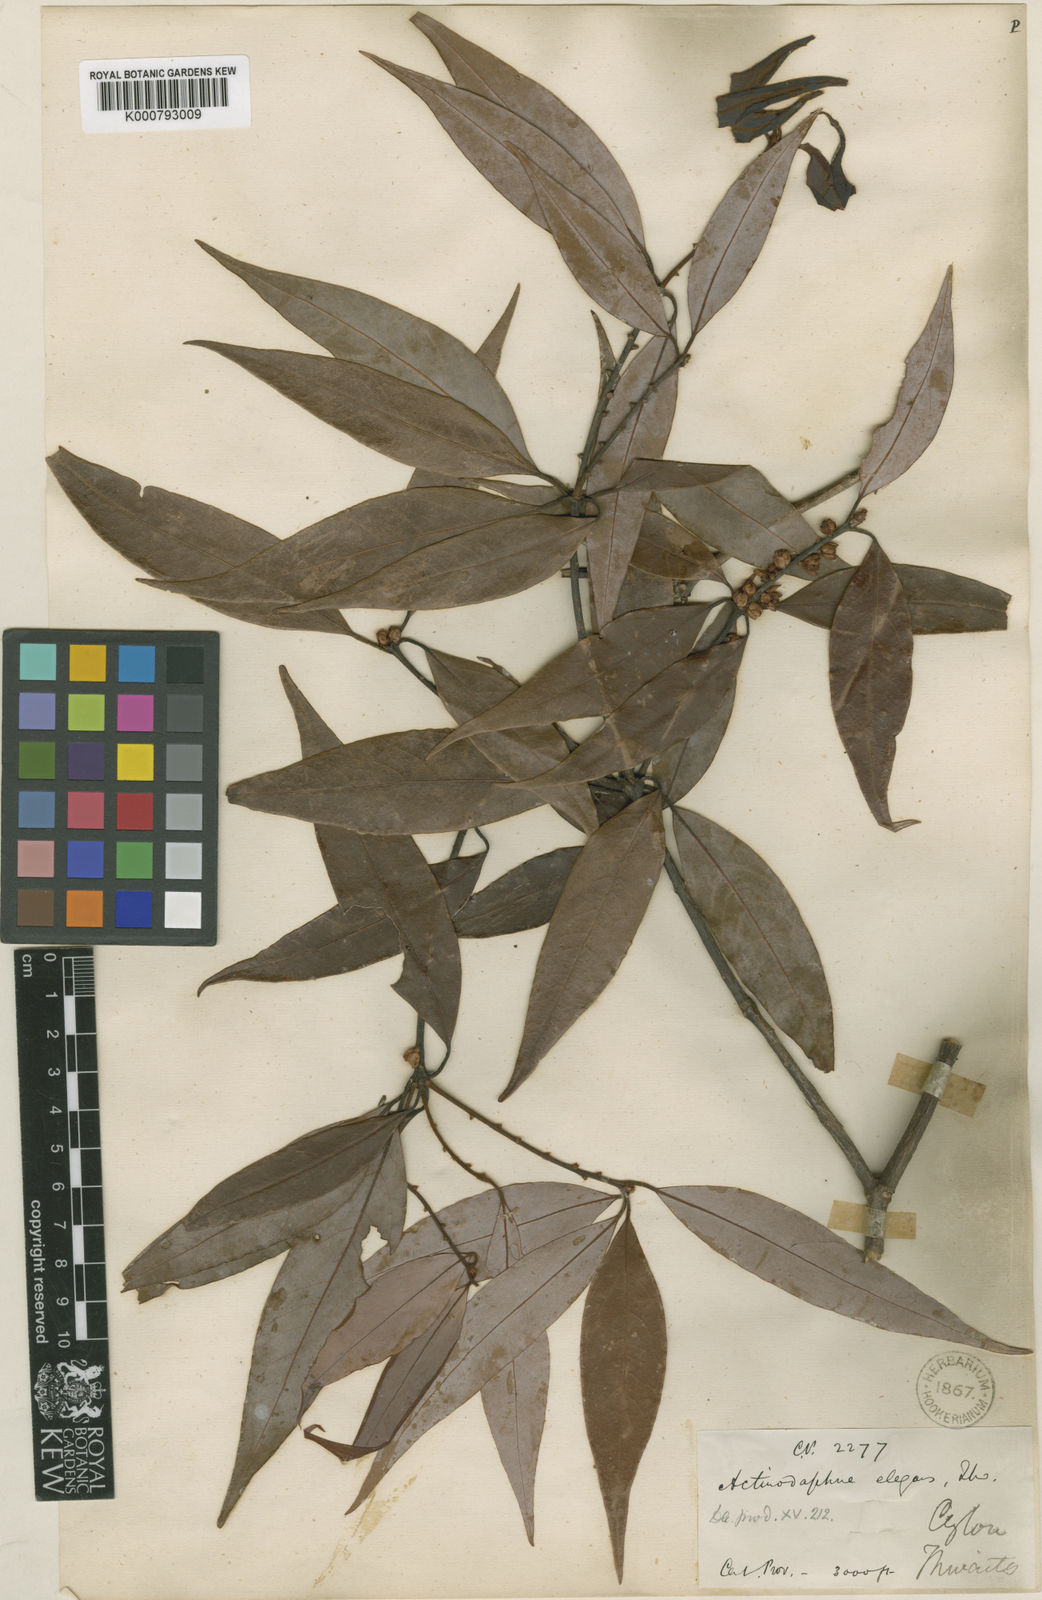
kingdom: Plantae
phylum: Tracheophyta
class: Magnoliopsida
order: Laurales
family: Lauraceae
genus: Actinodaphne
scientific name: Actinodaphne elegans
